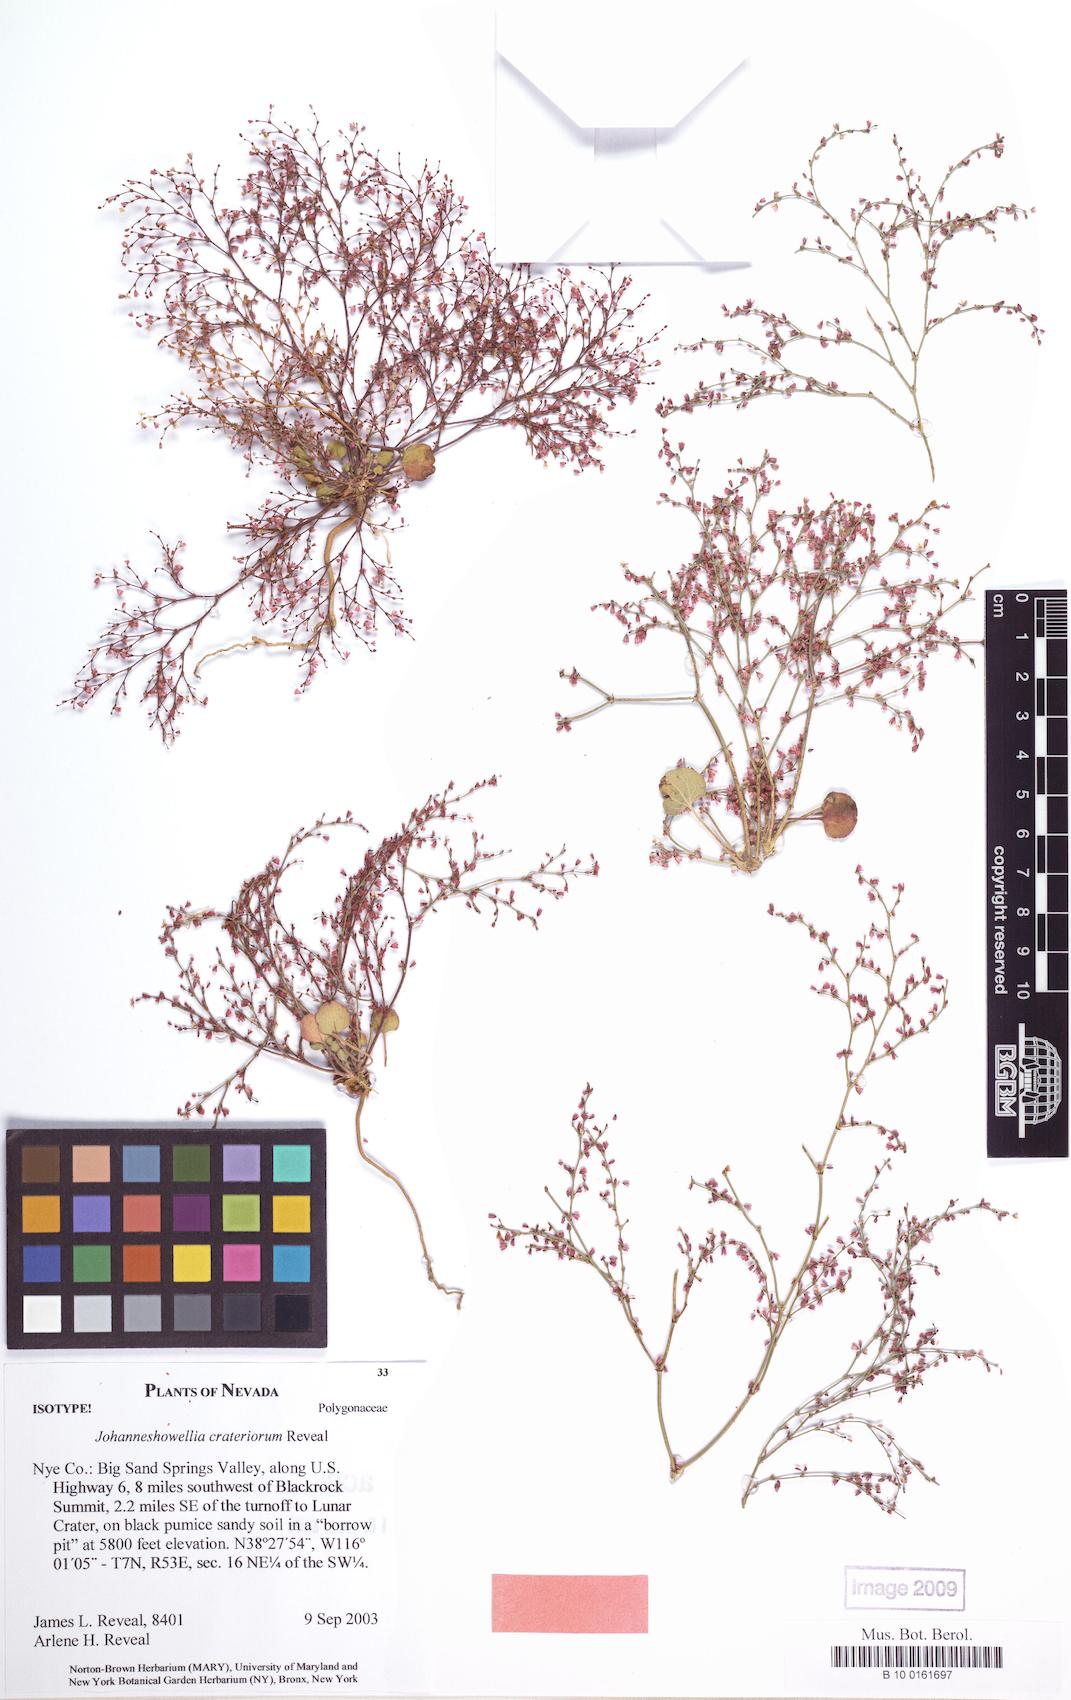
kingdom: Plantae
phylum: Tracheophyta
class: Magnoliopsida
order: Caryophyllales
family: Polygonaceae
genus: Johanneshowellia
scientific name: Johanneshowellia crateriorum
